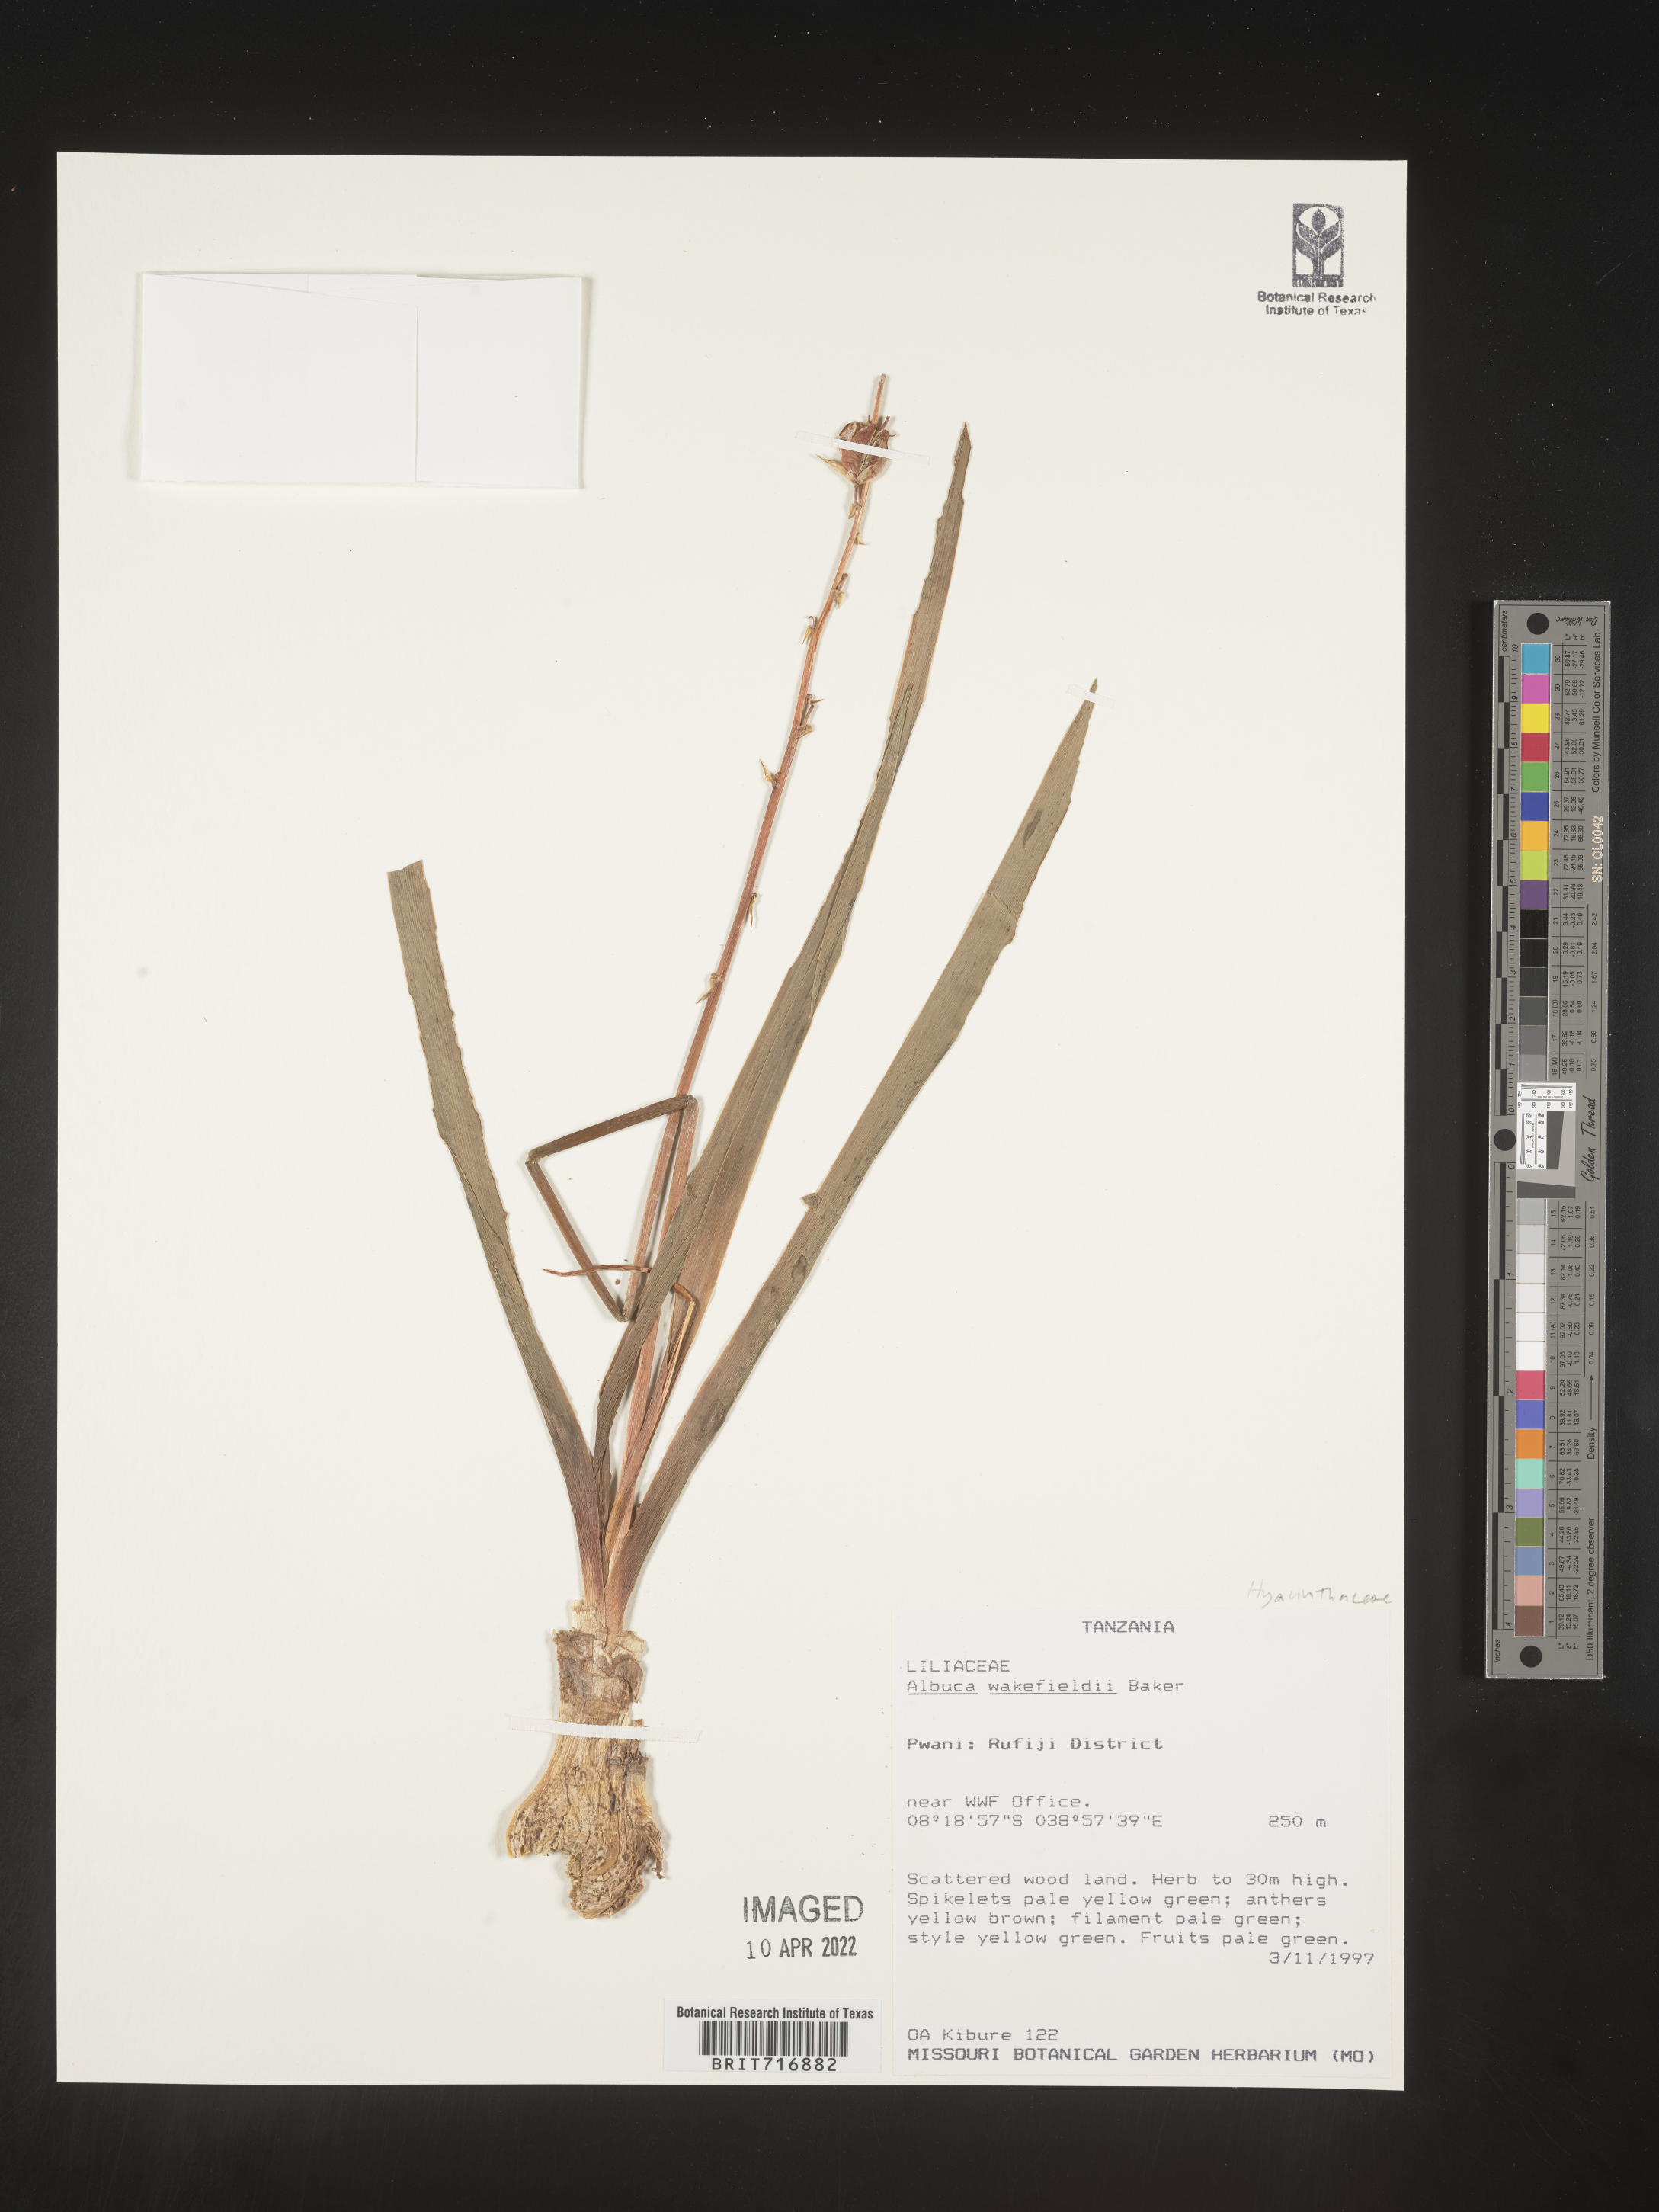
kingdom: Plantae
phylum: Tracheophyta
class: Liliopsida
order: Asparagales
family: Asparagaceae
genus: Albuca
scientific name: Albuca
